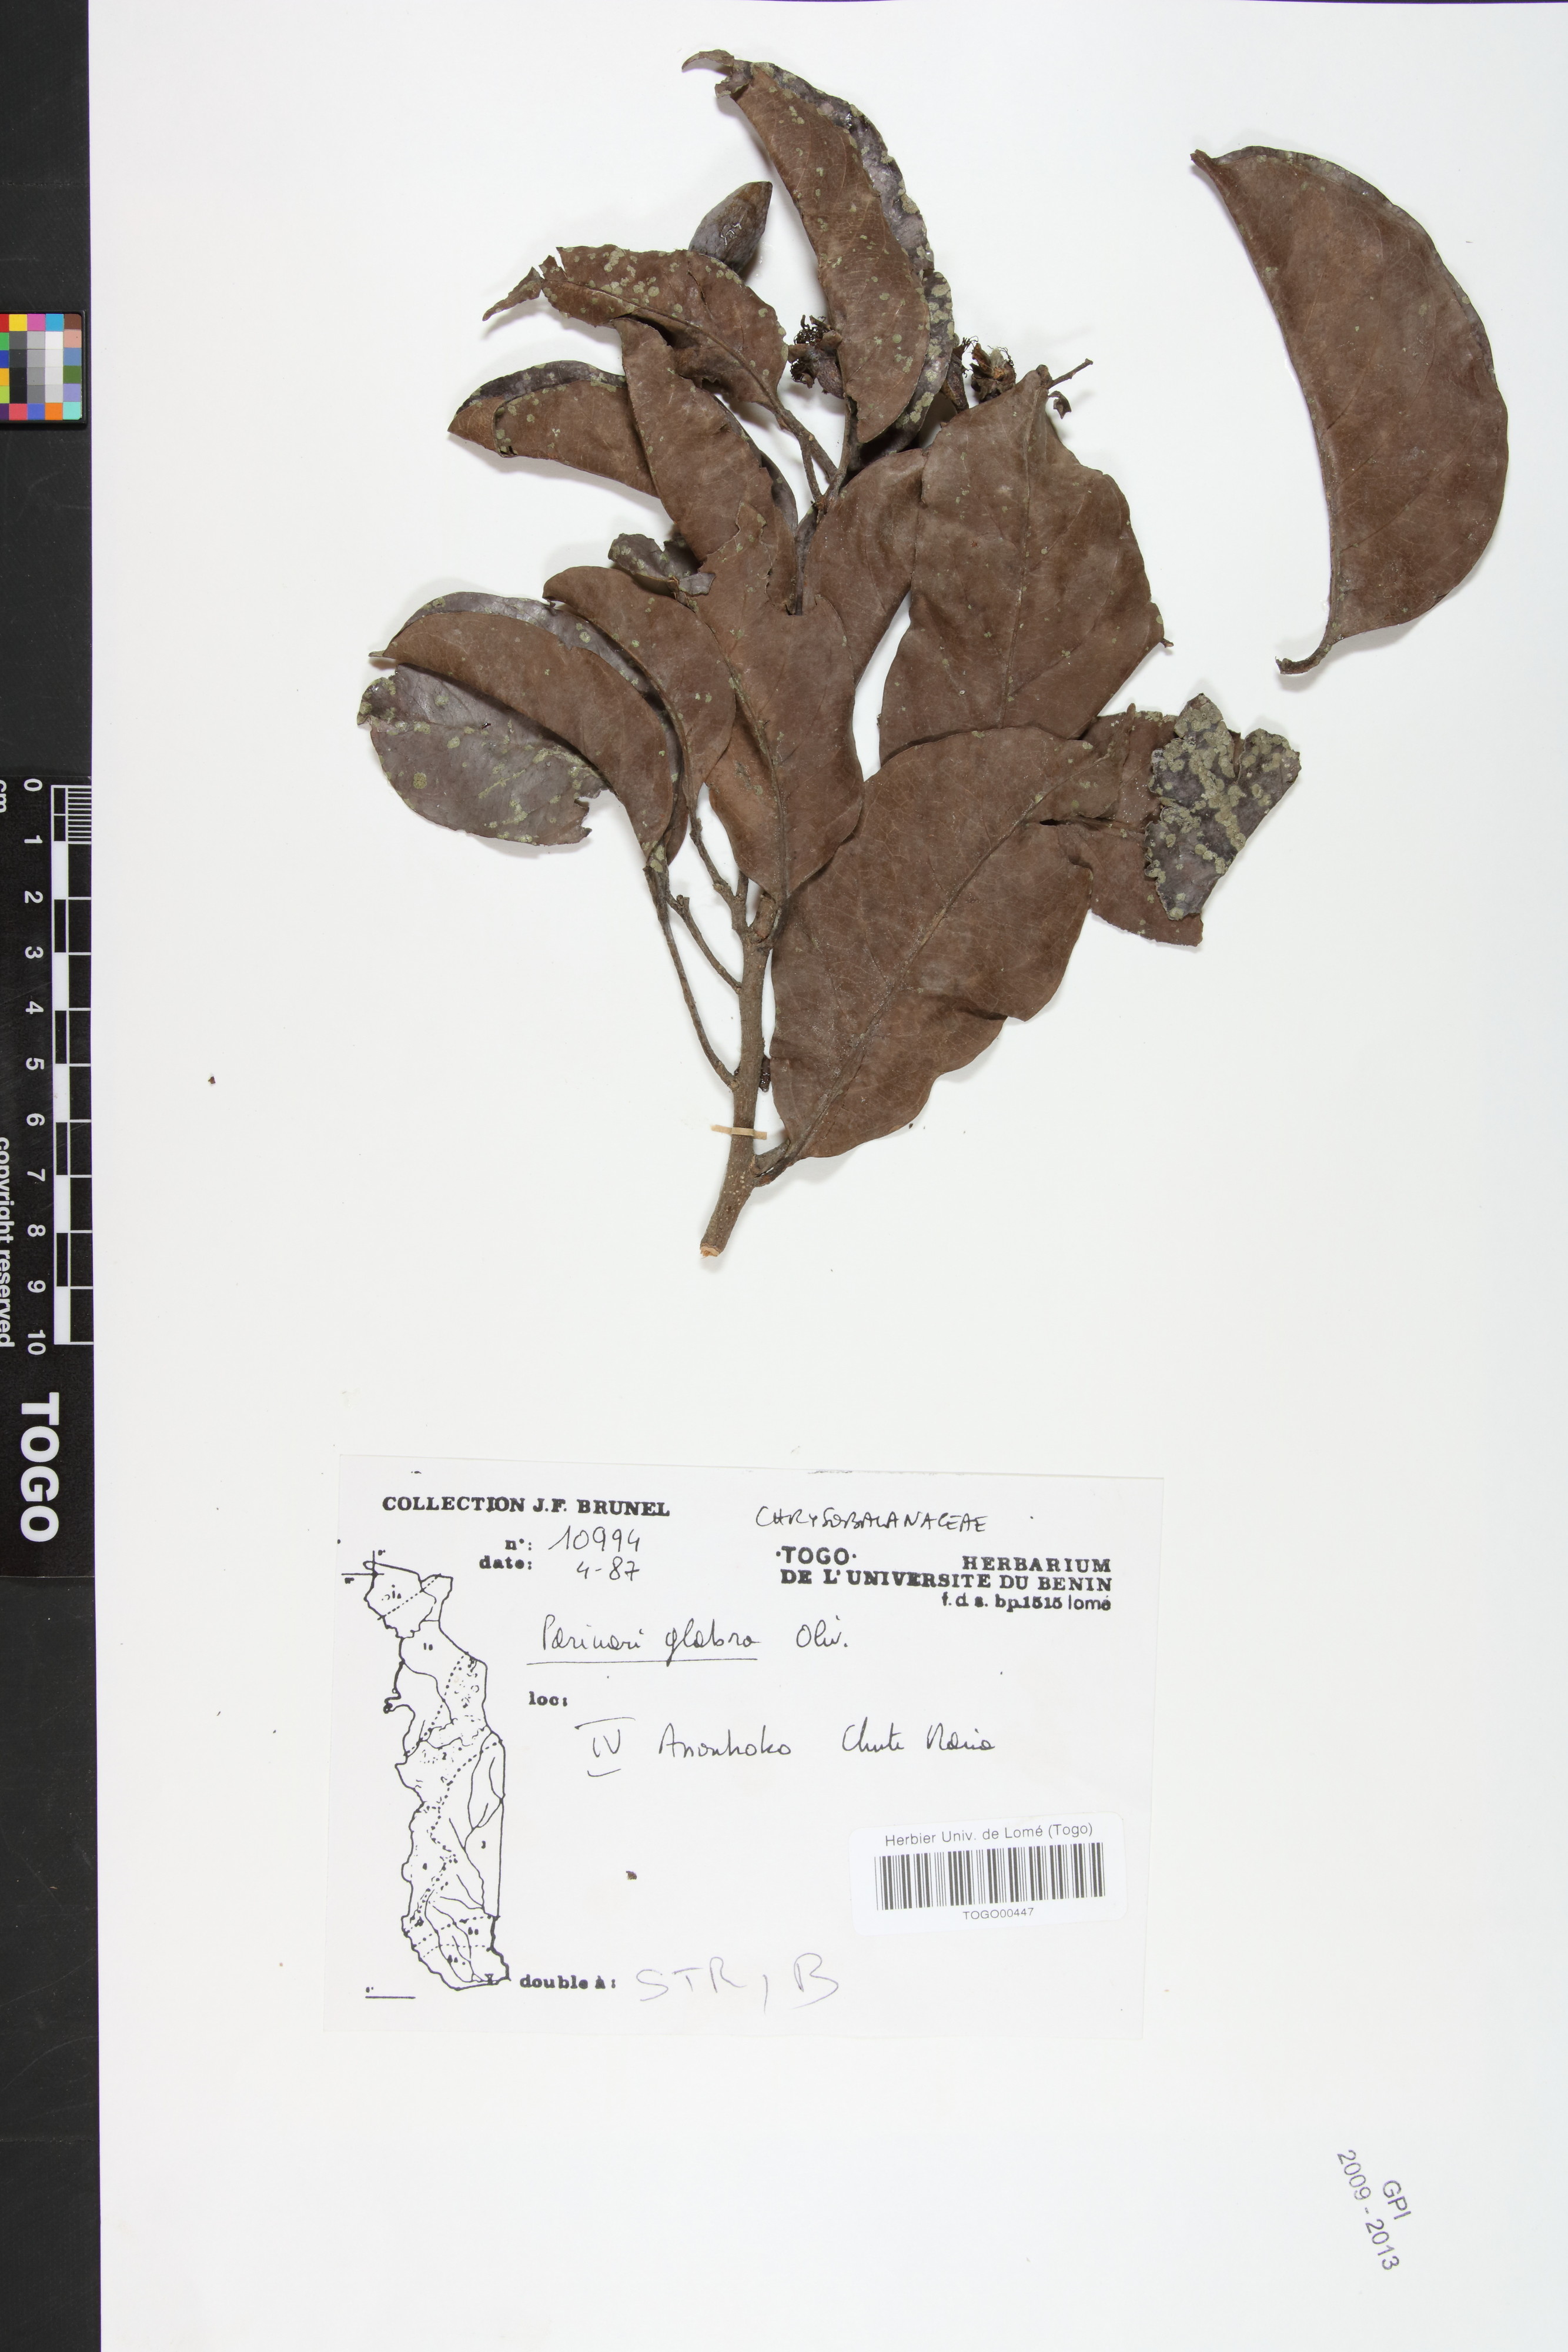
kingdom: Plantae
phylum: Tracheophyta
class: Magnoliopsida
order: Malpighiales
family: Chrysobalanaceae
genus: Maranthes
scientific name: Maranthes glabra
